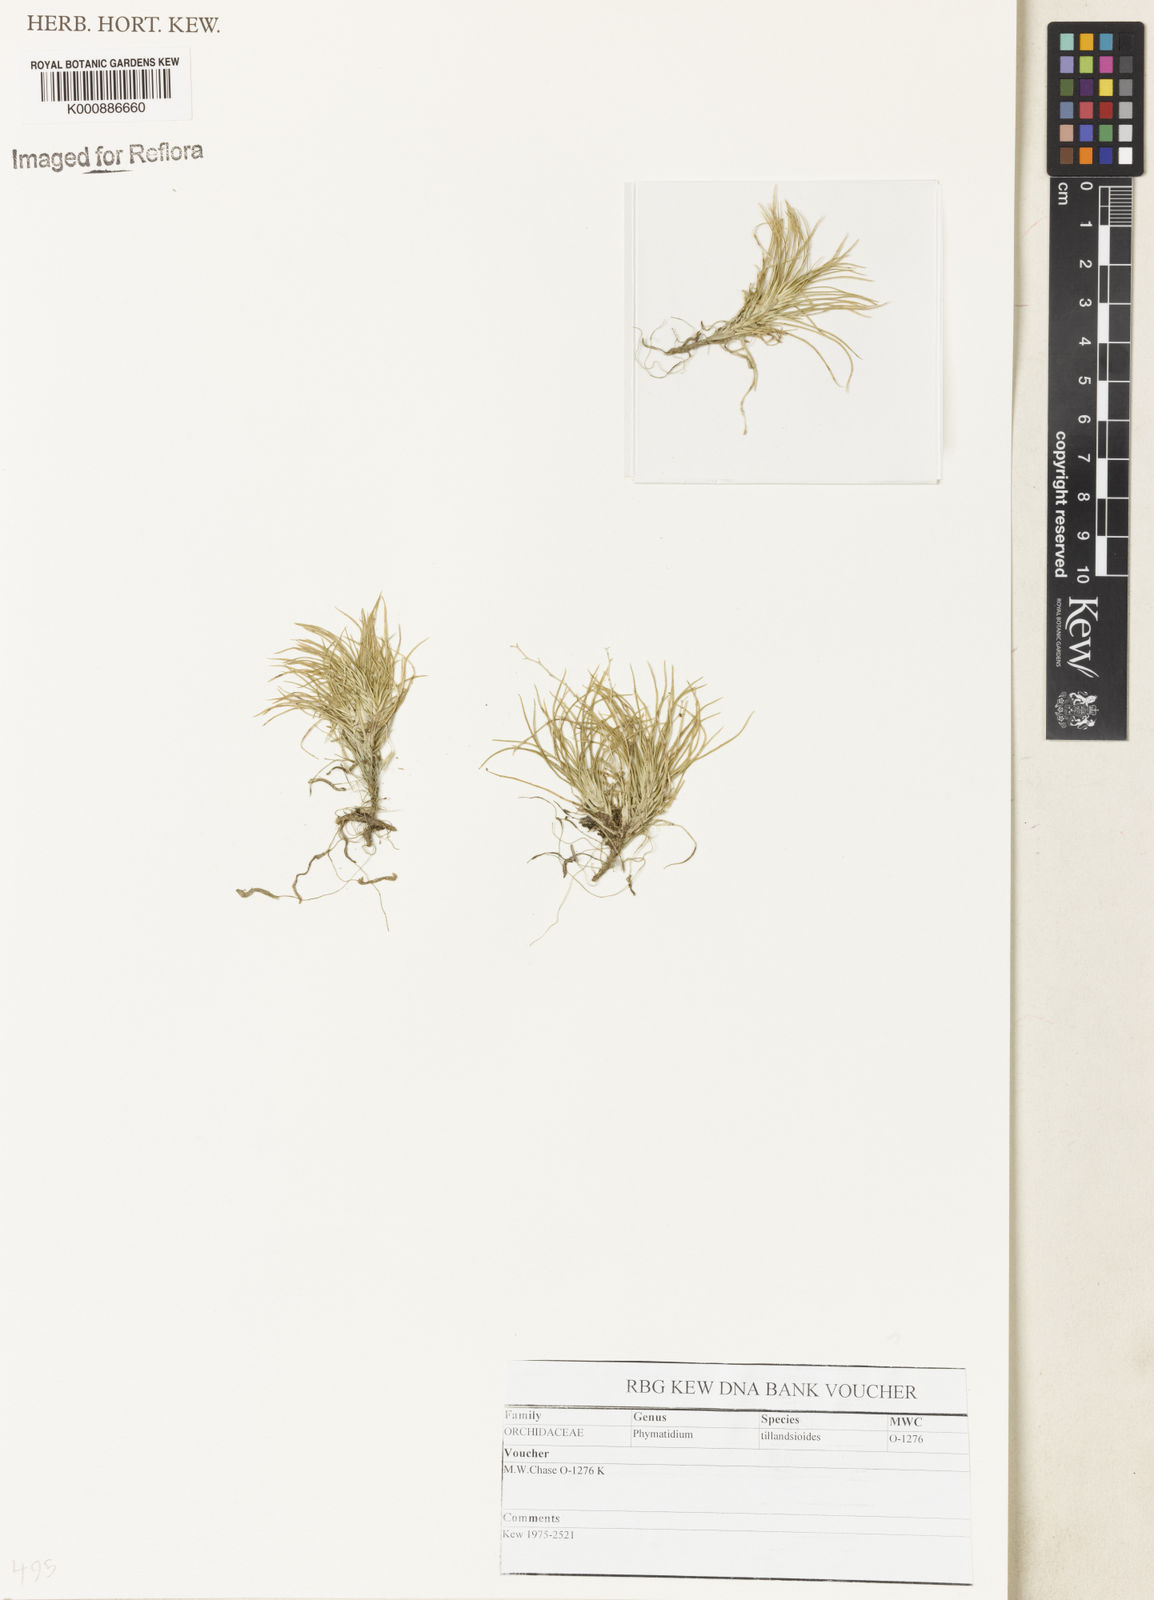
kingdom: Plantae
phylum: Tracheophyta
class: Liliopsida
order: Asparagales
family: Orchidaceae
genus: Phymatidium
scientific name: Phymatidium falcifolium
